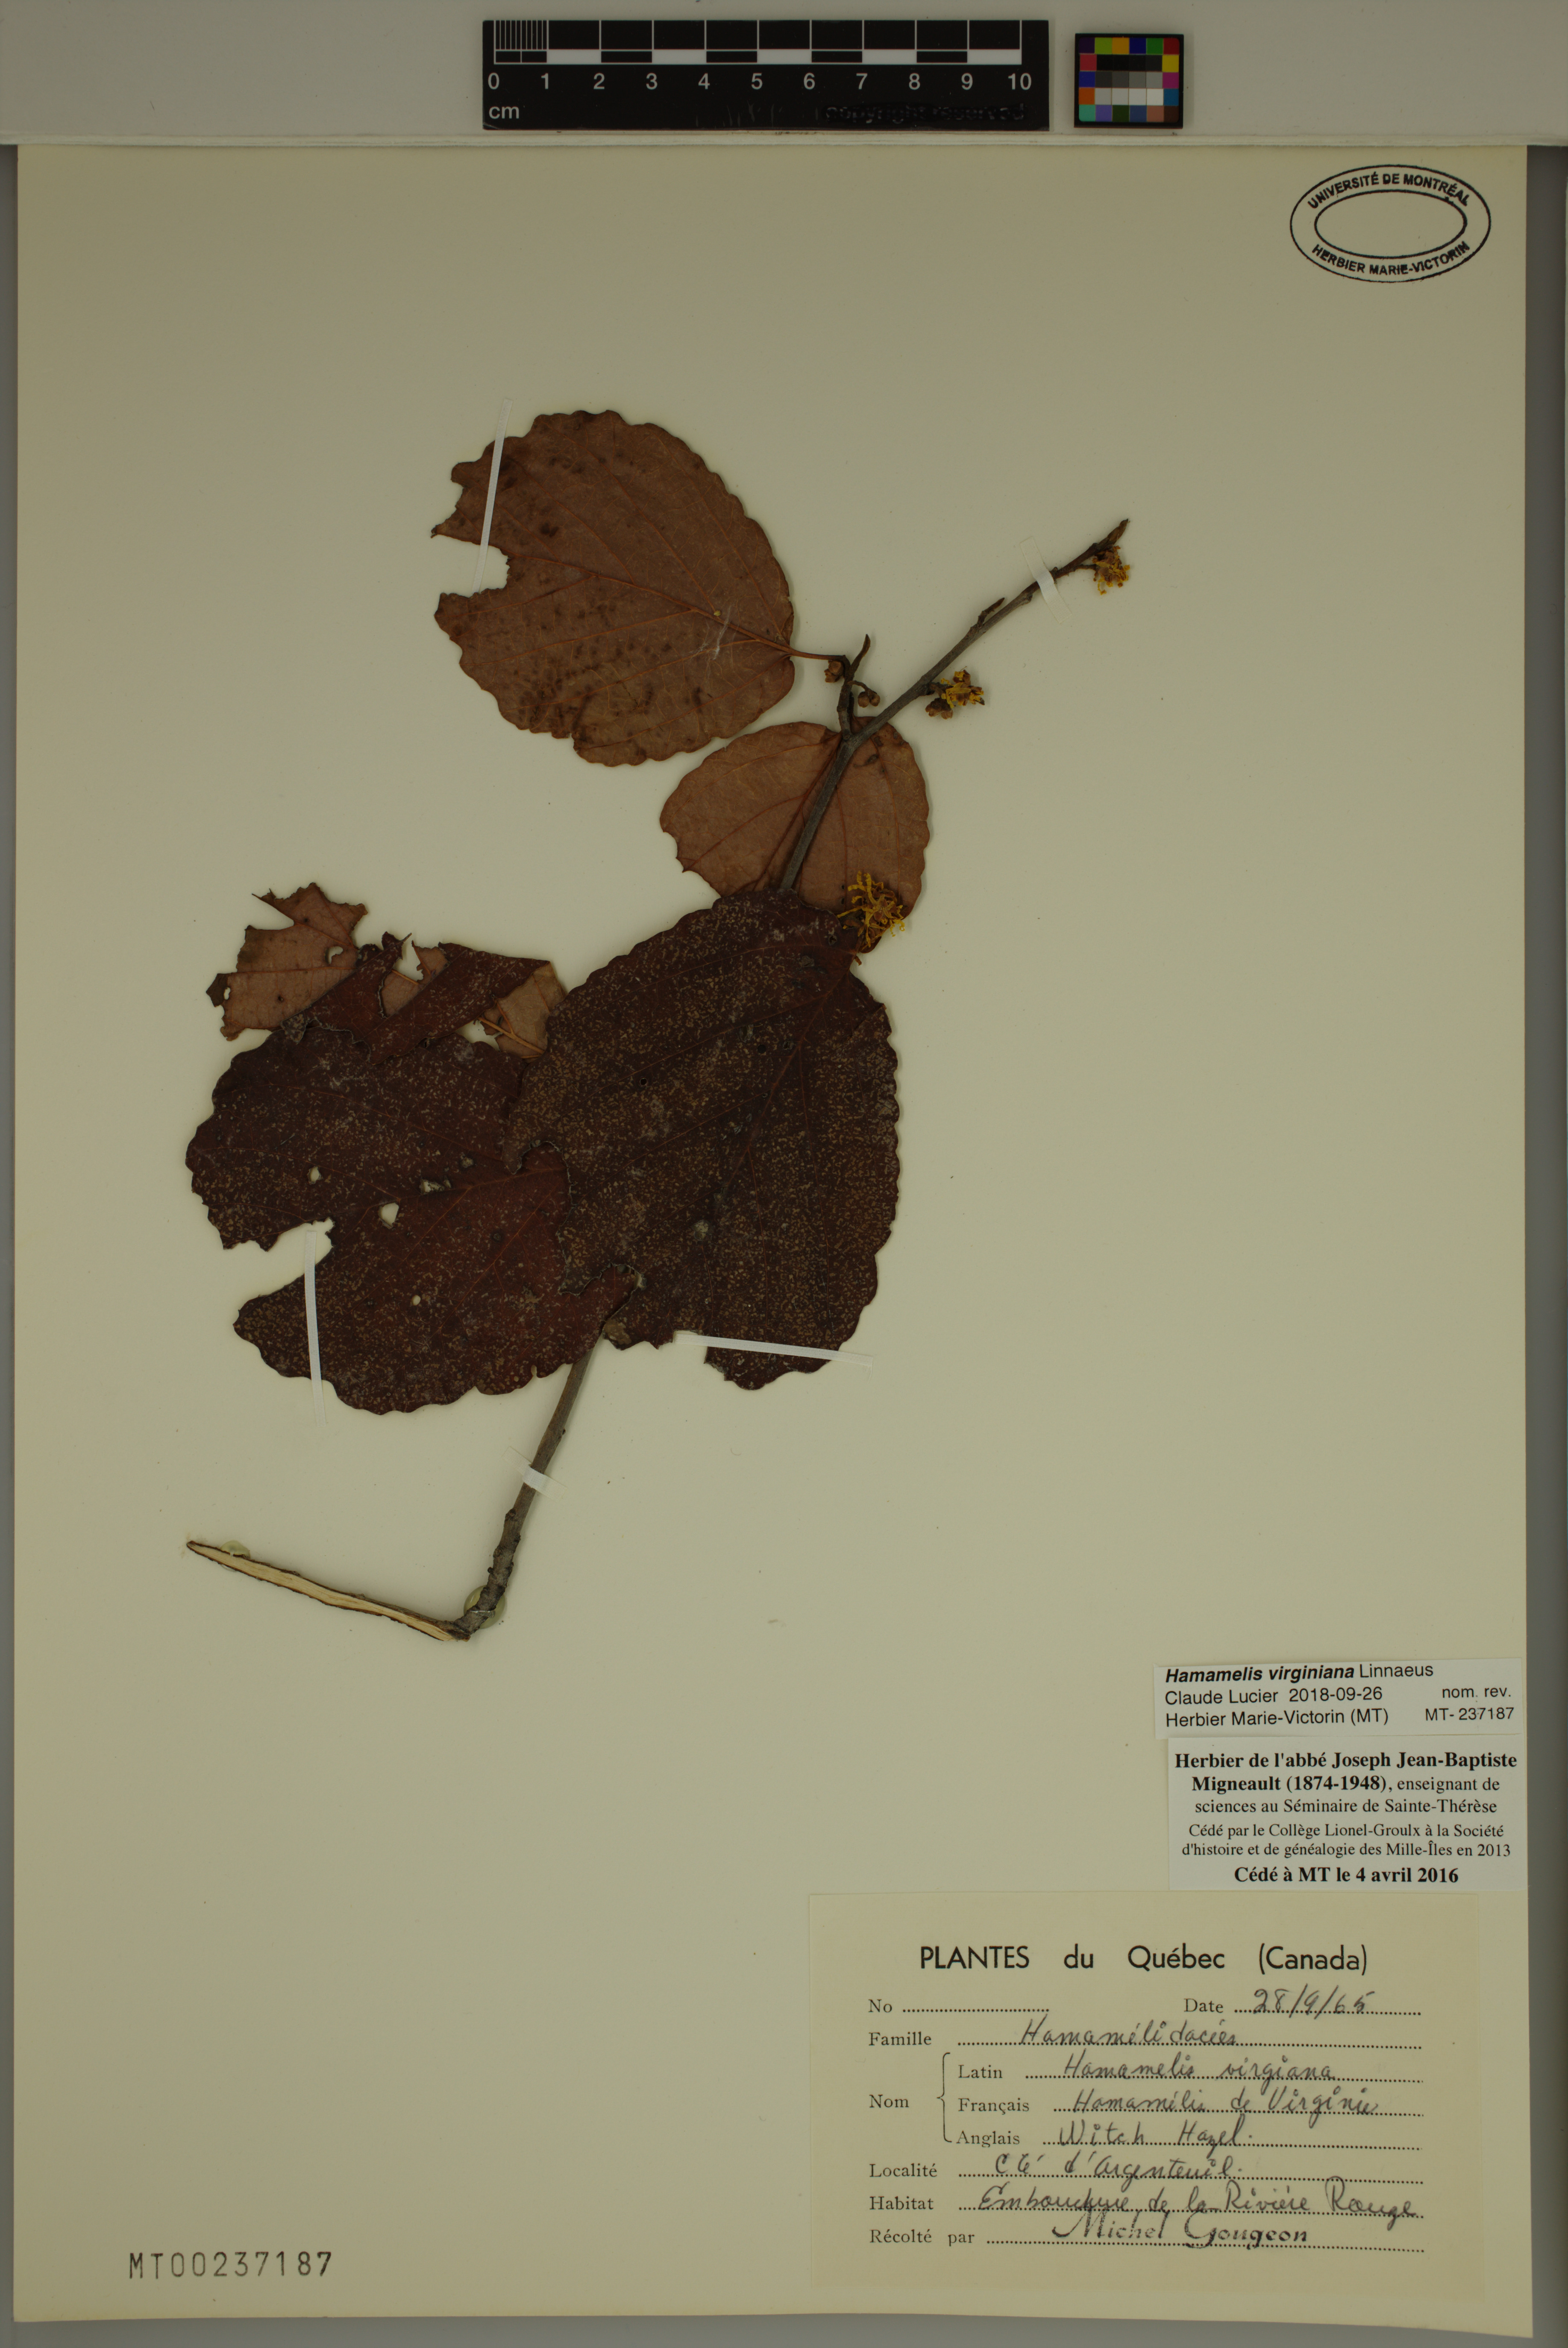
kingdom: Plantae
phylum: Tracheophyta
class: Magnoliopsida
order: Saxifragales
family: Hamamelidaceae
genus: Hamamelis
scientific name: Hamamelis virginiana
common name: Witch-hazel
